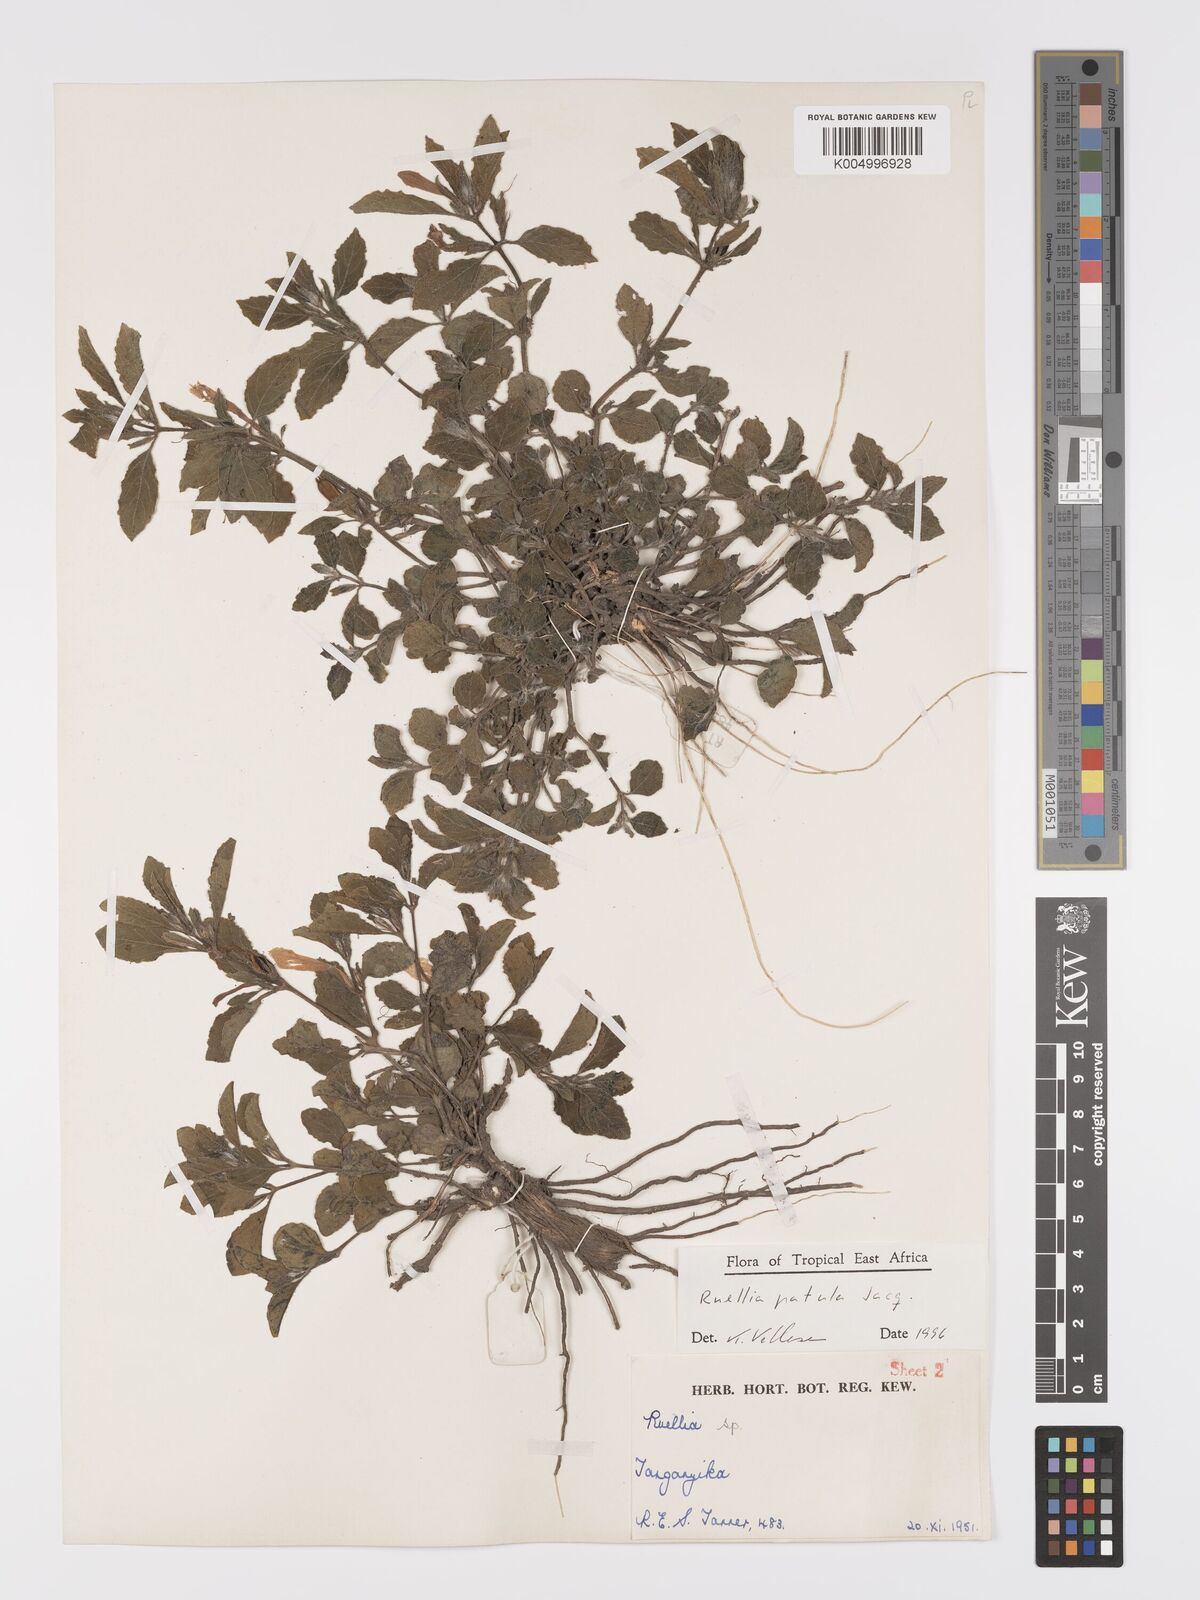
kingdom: Plantae
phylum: Tracheophyta
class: Magnoliopsida
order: Lamiales
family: Acanthaceae
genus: Ruellia
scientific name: Ruellia patula
